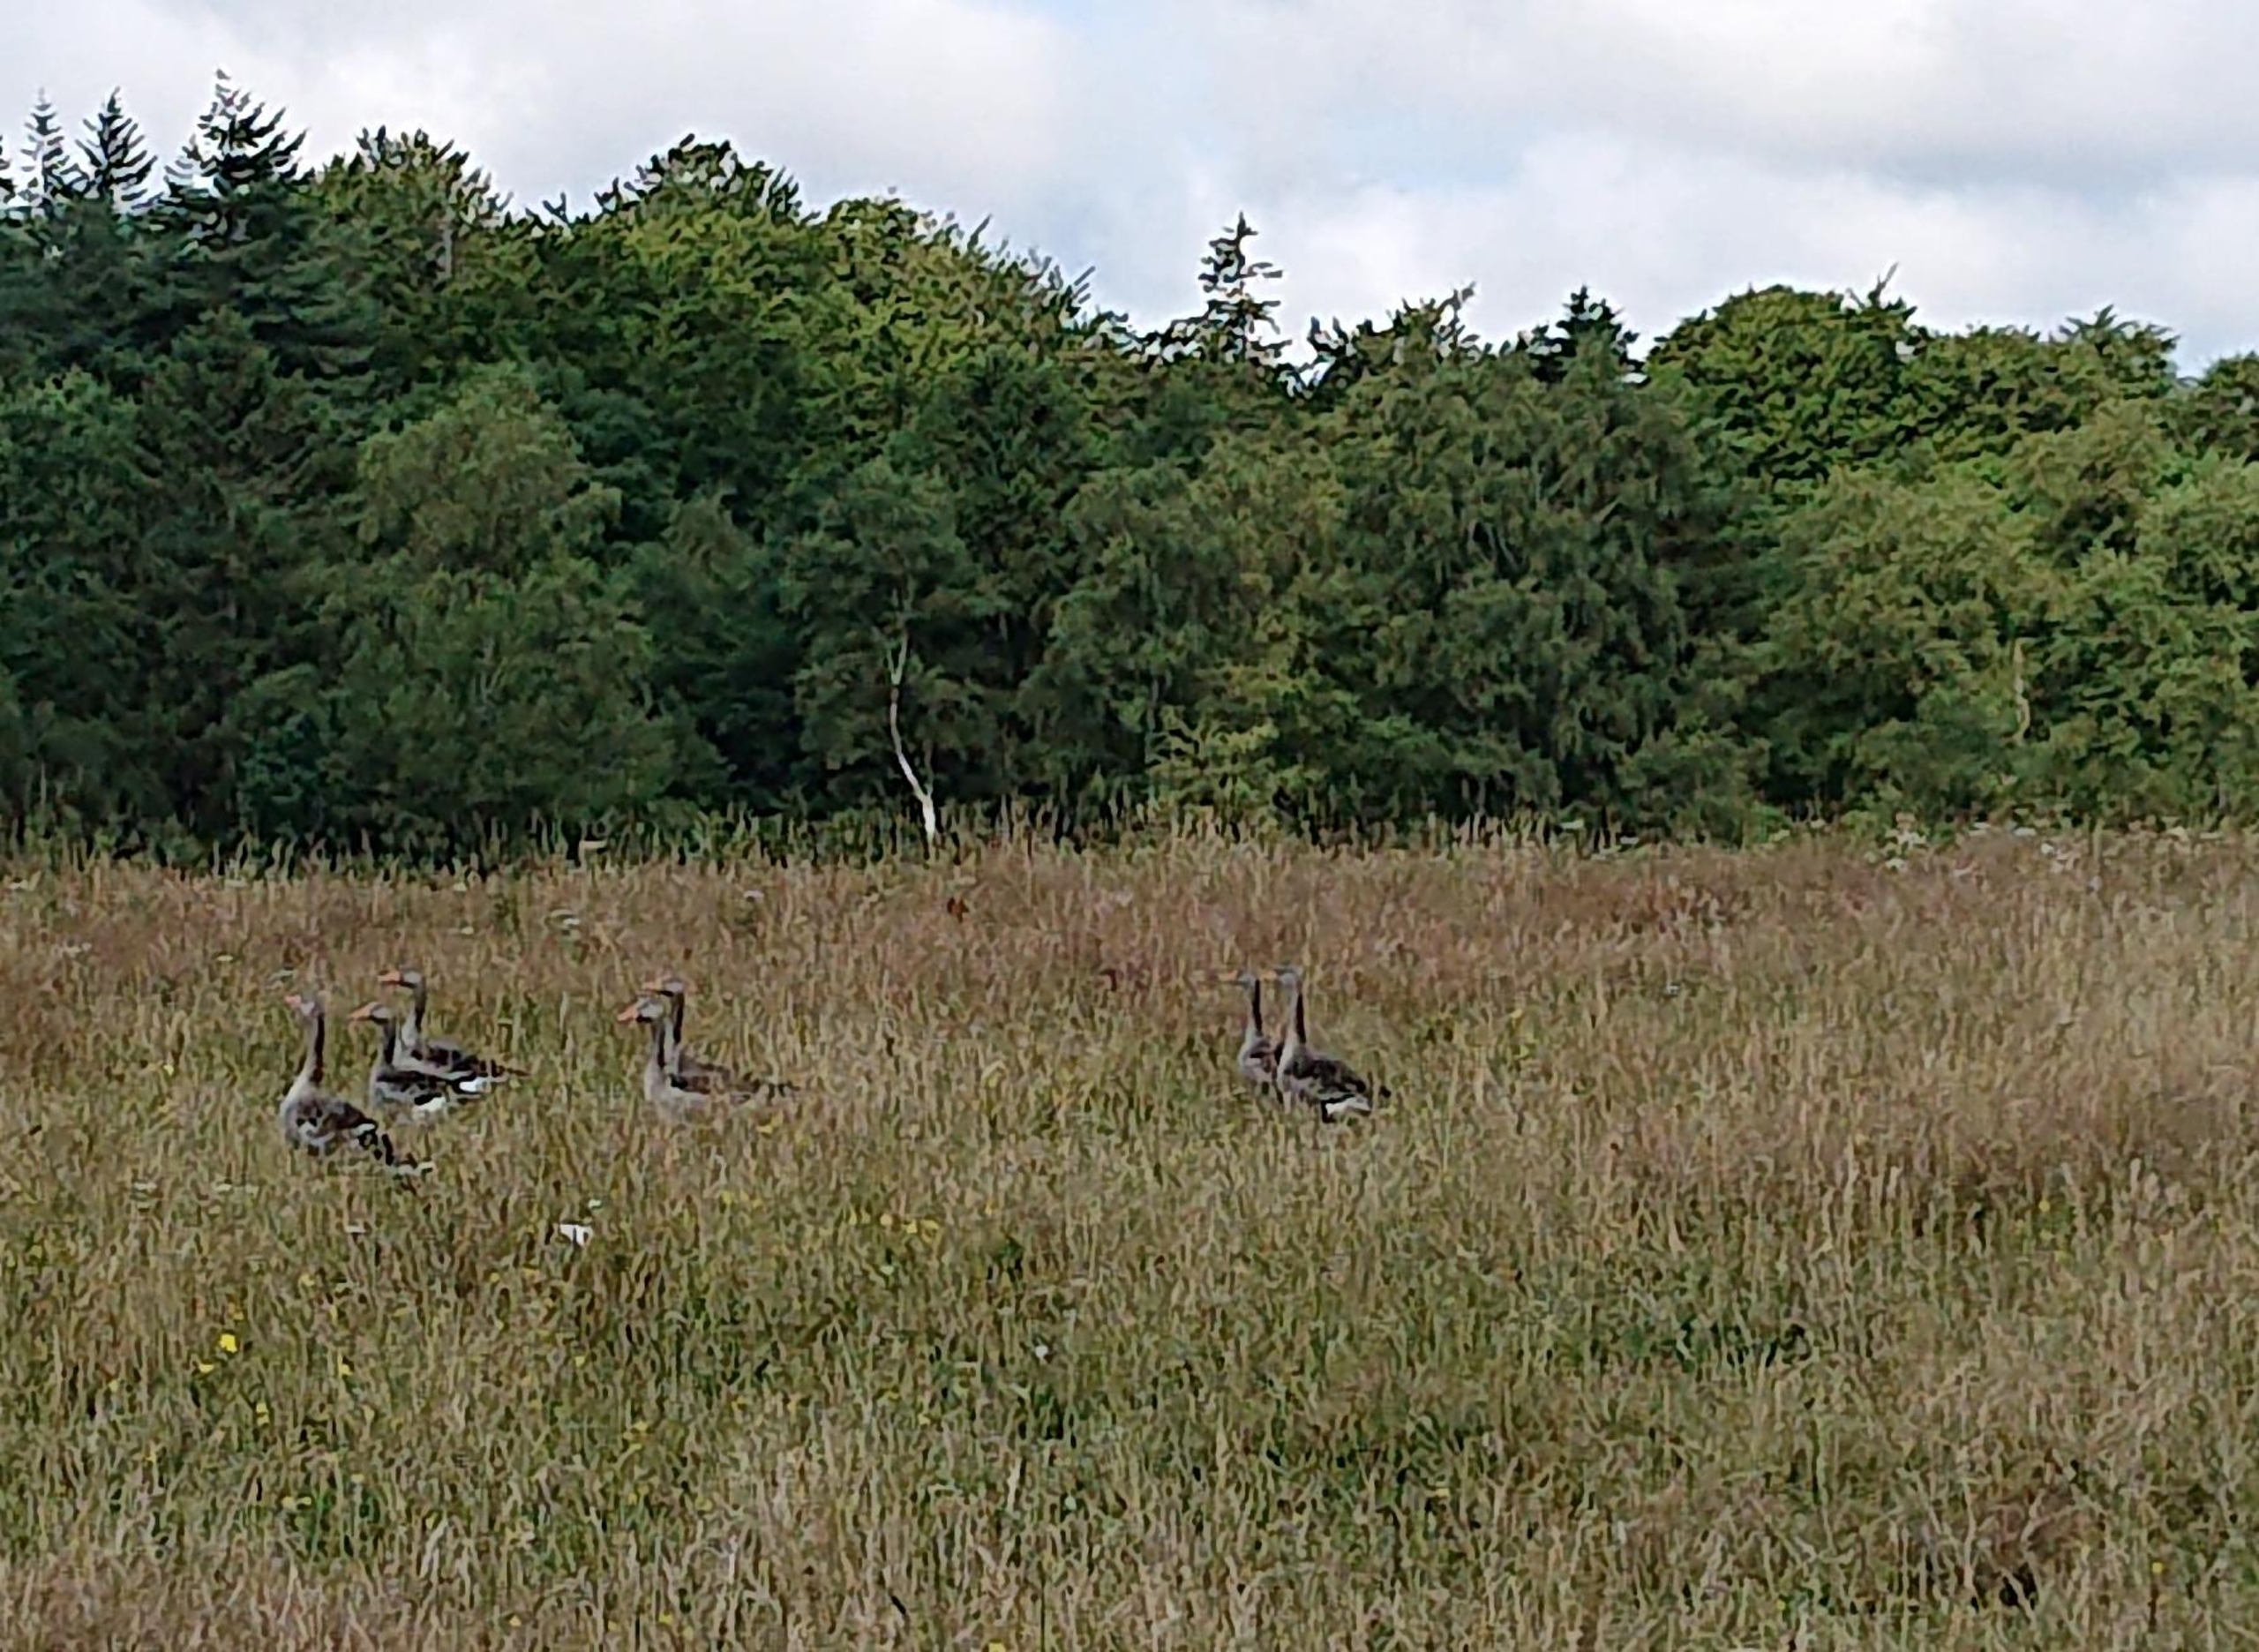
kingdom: Animalia
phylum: Chordata
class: Aves
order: Anseriformes
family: Anatidae
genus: Anser
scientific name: Anser anser
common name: Grågås
